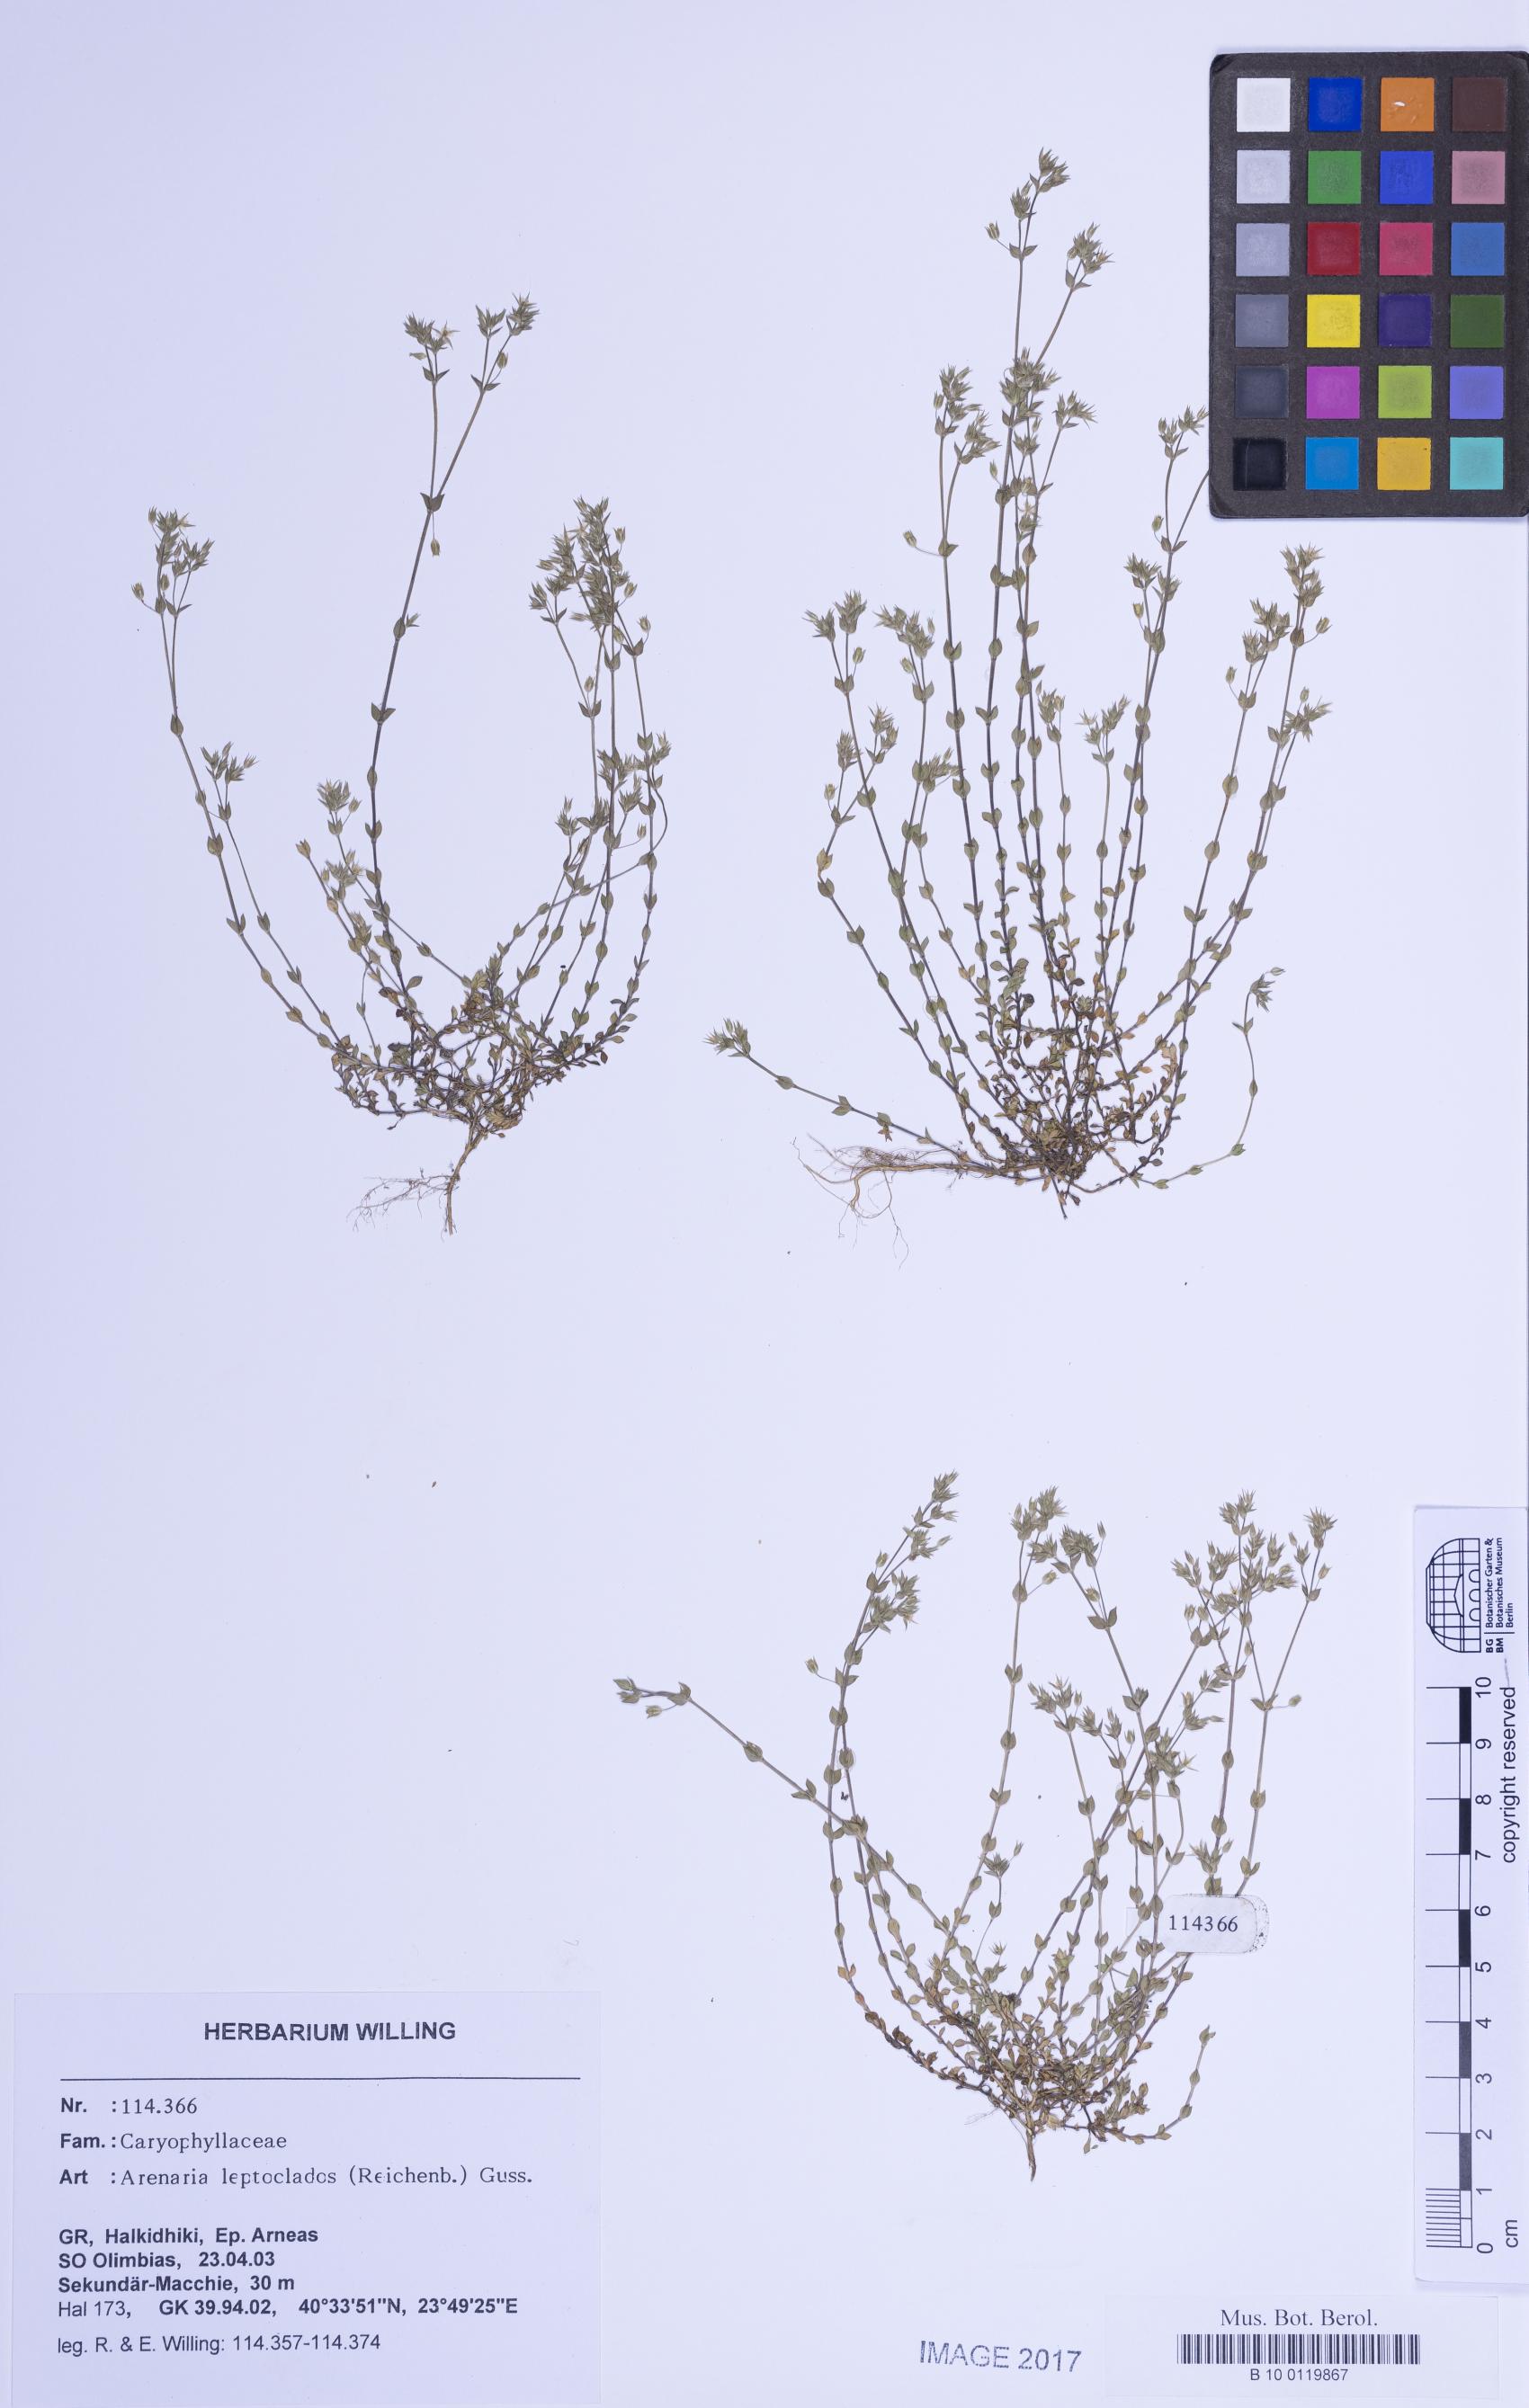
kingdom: Plantae
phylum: Tracheophyta
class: Magnoliopsida
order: Caryophyllales
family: Caryophyllaceae
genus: Arenaria
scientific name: Arenaria leptoclados
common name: Thyme-leaved sandwort
